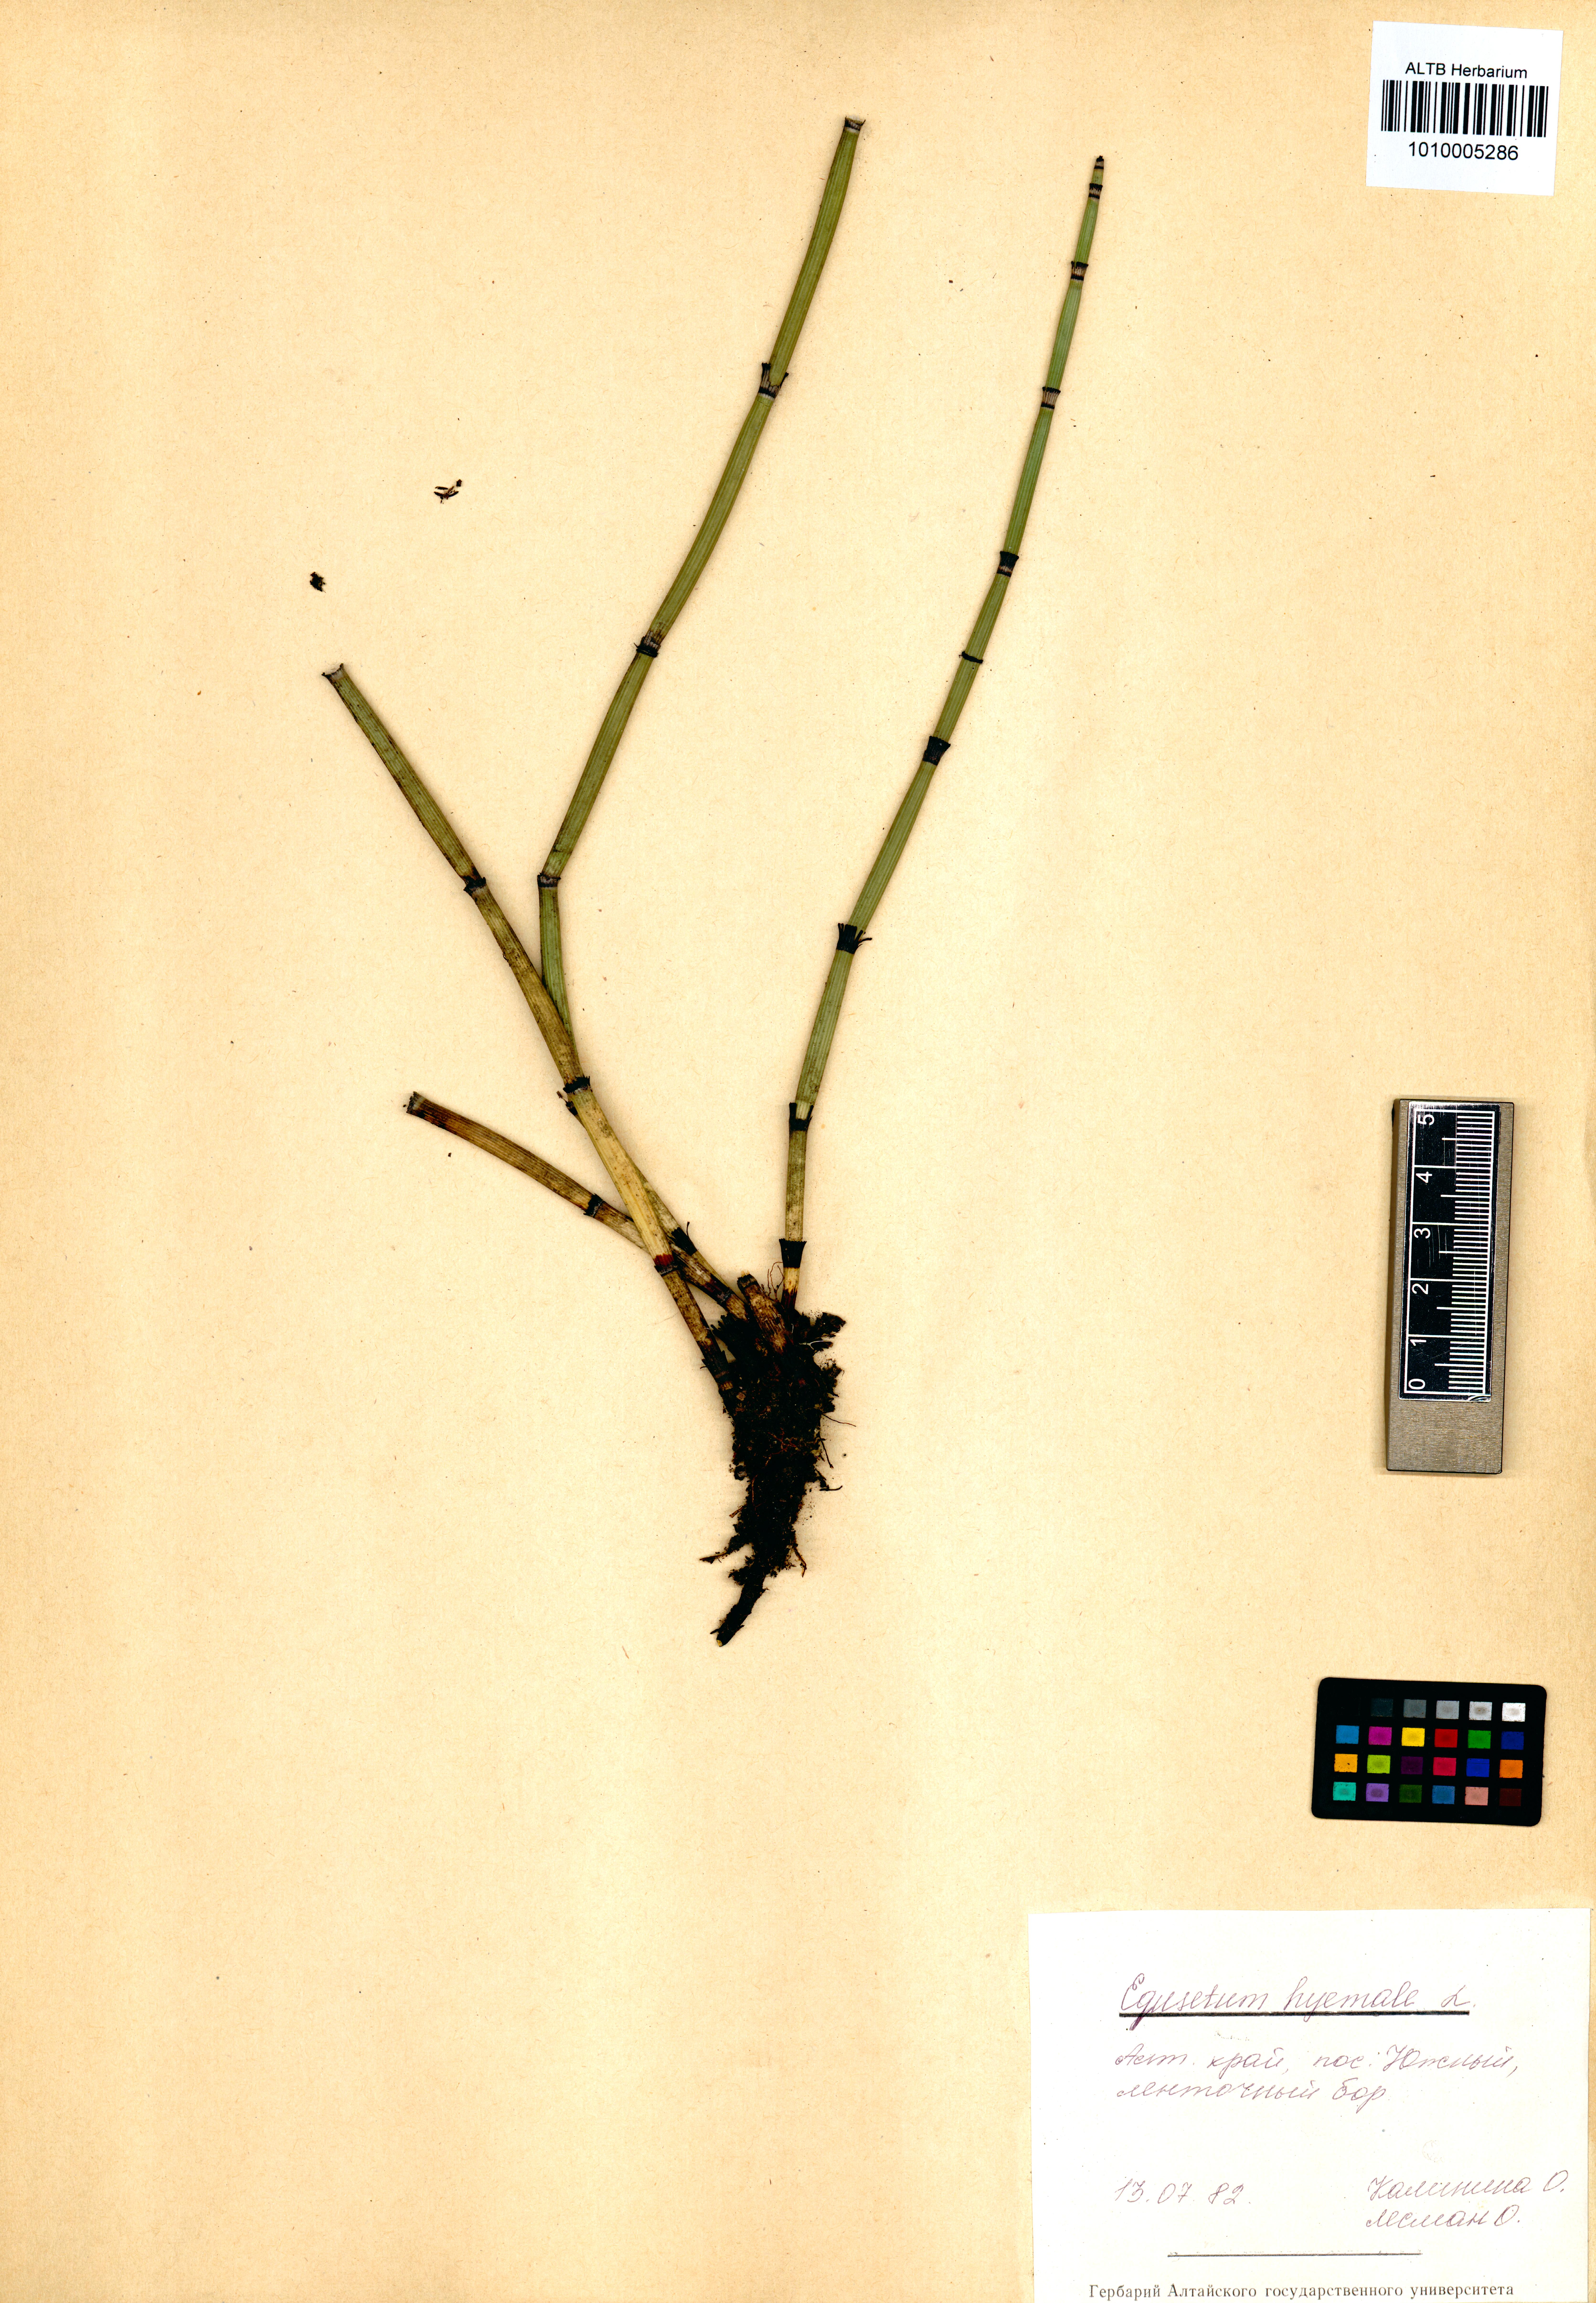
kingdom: Plantae
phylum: Tracheophyta
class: Polypodiopsida
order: Equisetales
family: Equisetaceae
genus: Equisetum
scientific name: Equisetum hyemale
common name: Rough horsetail
